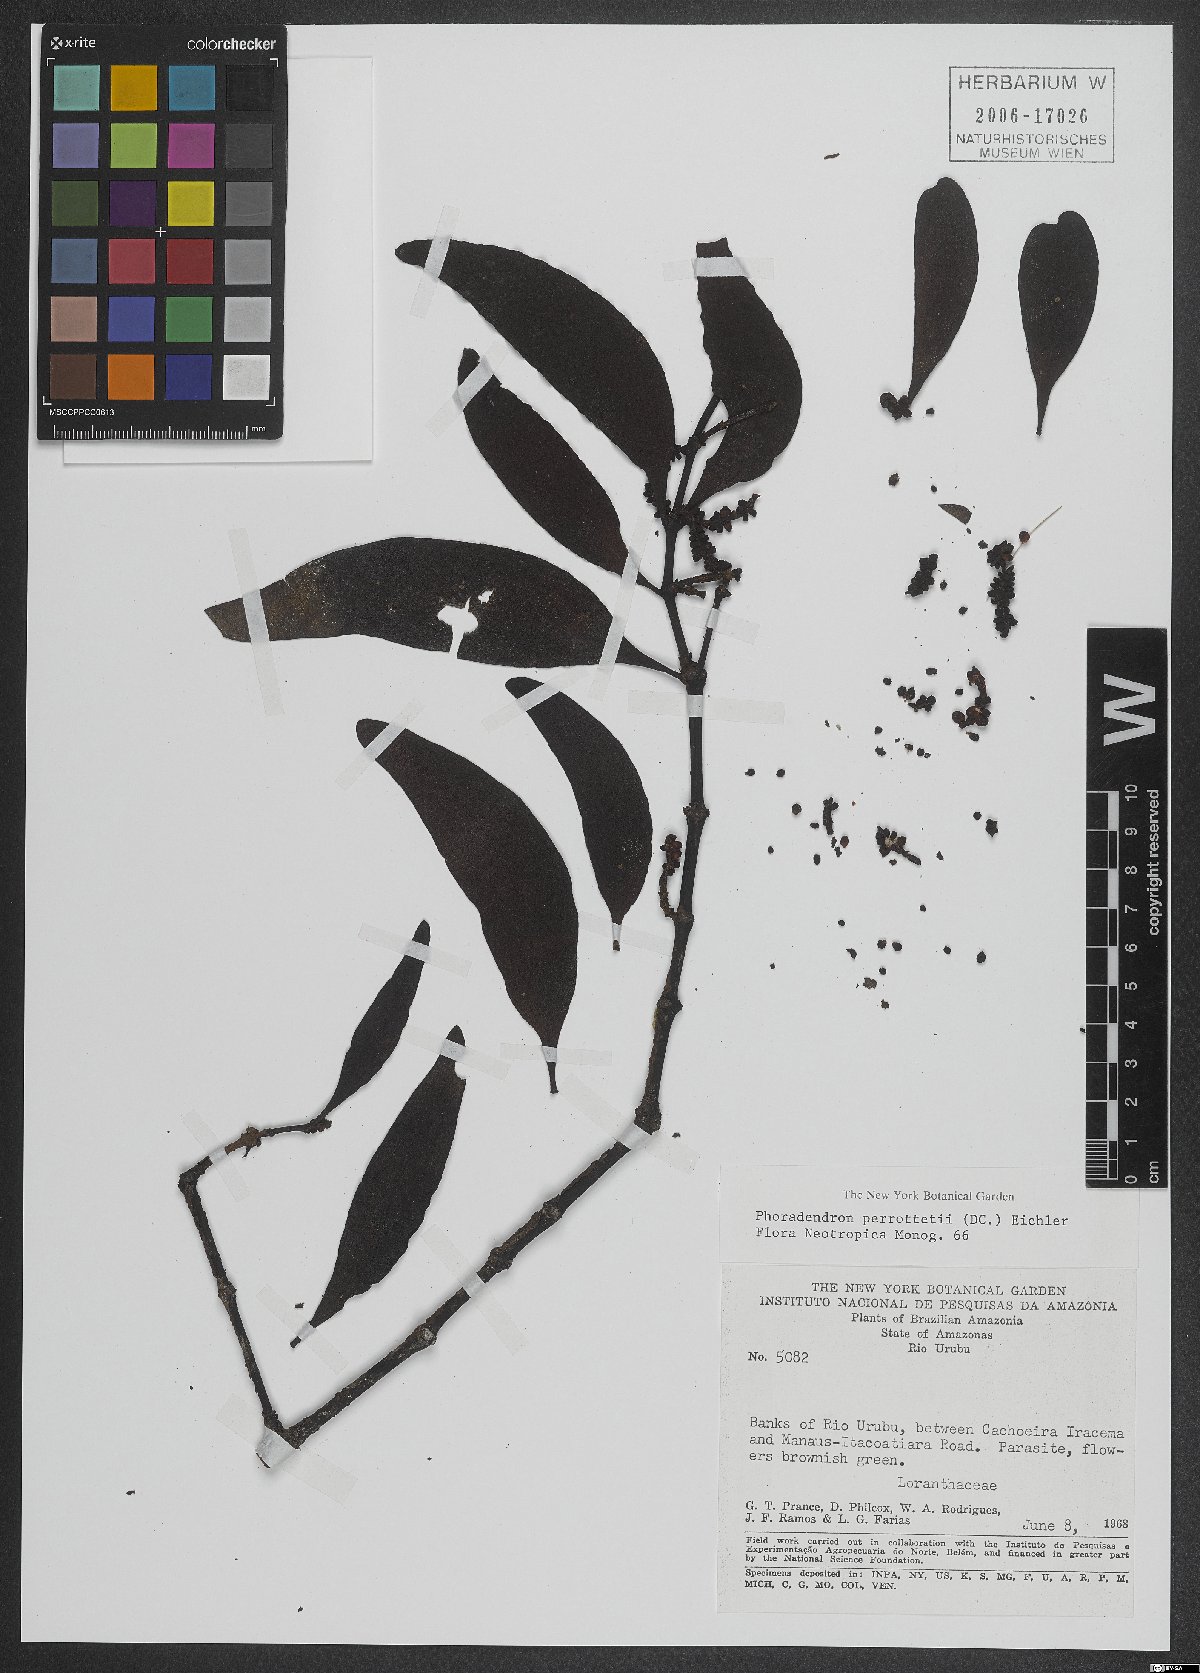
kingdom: Plantae
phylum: Tracheophyta
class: Magnoliopsida
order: Santalales
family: Viscaceae
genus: Phoradendron
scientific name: Phoradendron perrottetii
